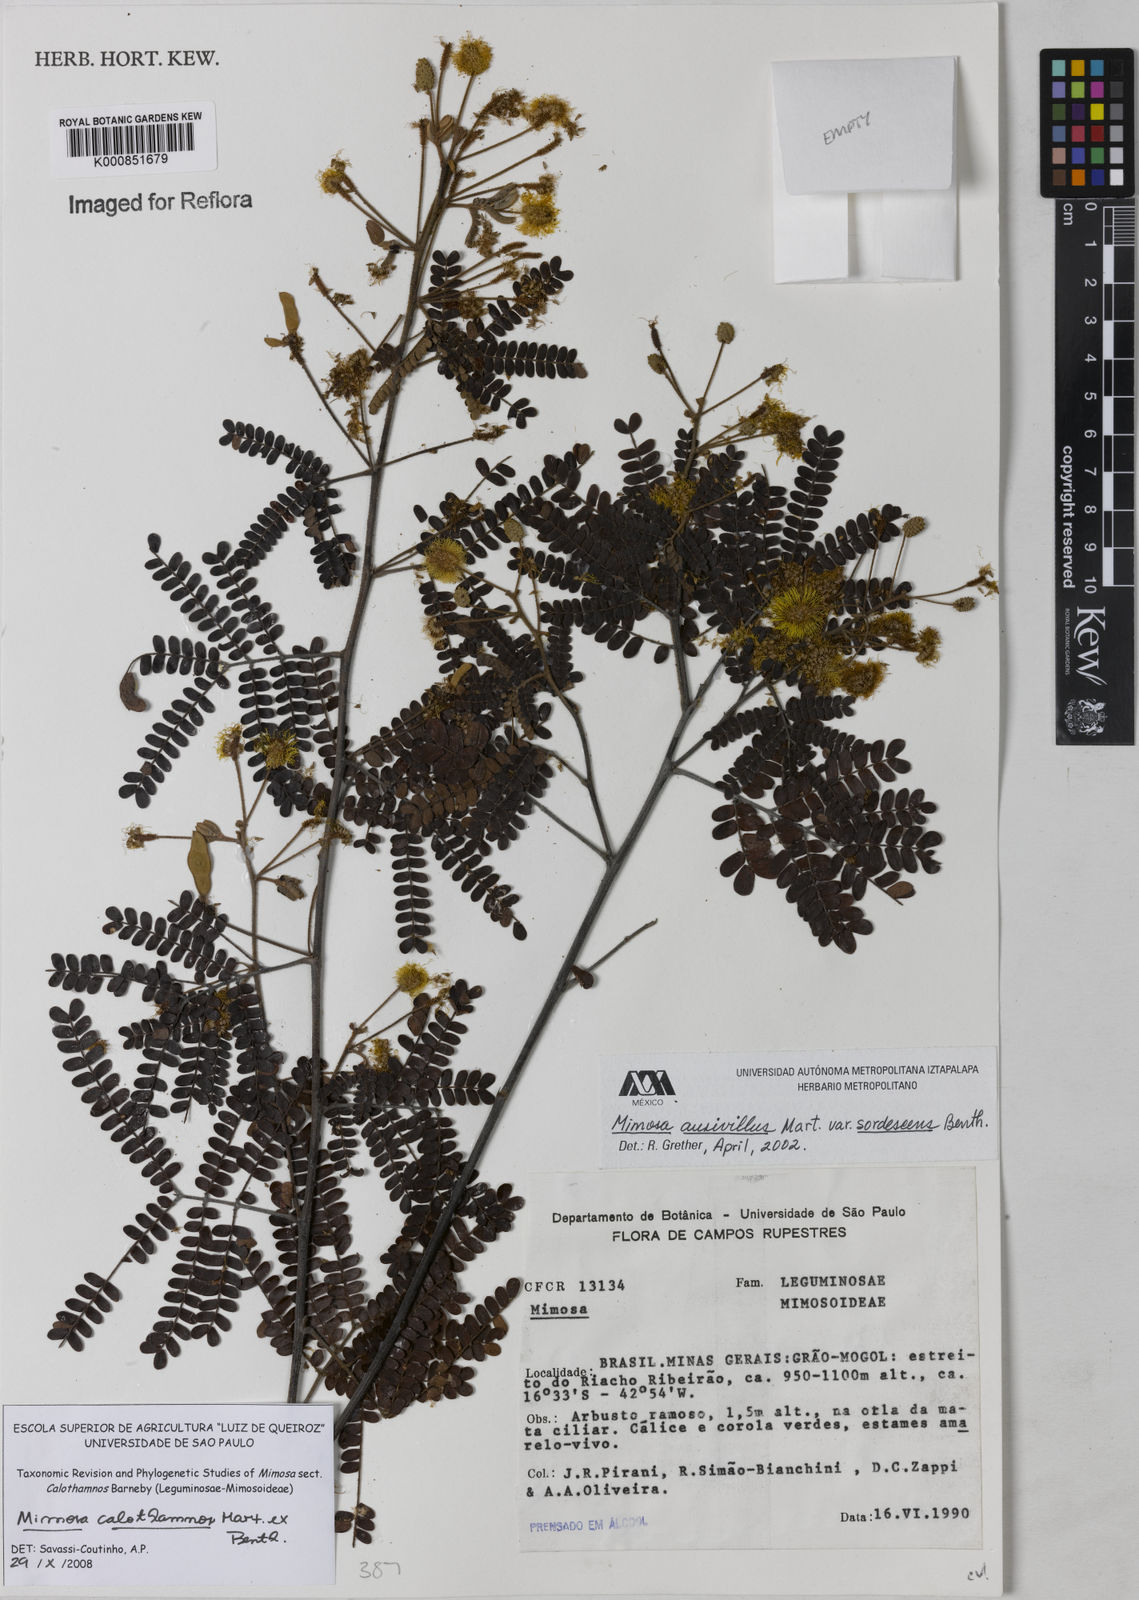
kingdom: Plantae
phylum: Tracheophyta
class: Magnoliopsida
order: Fabales
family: Fabaceae
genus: Mimosa
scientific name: Mimosa aurivillus
